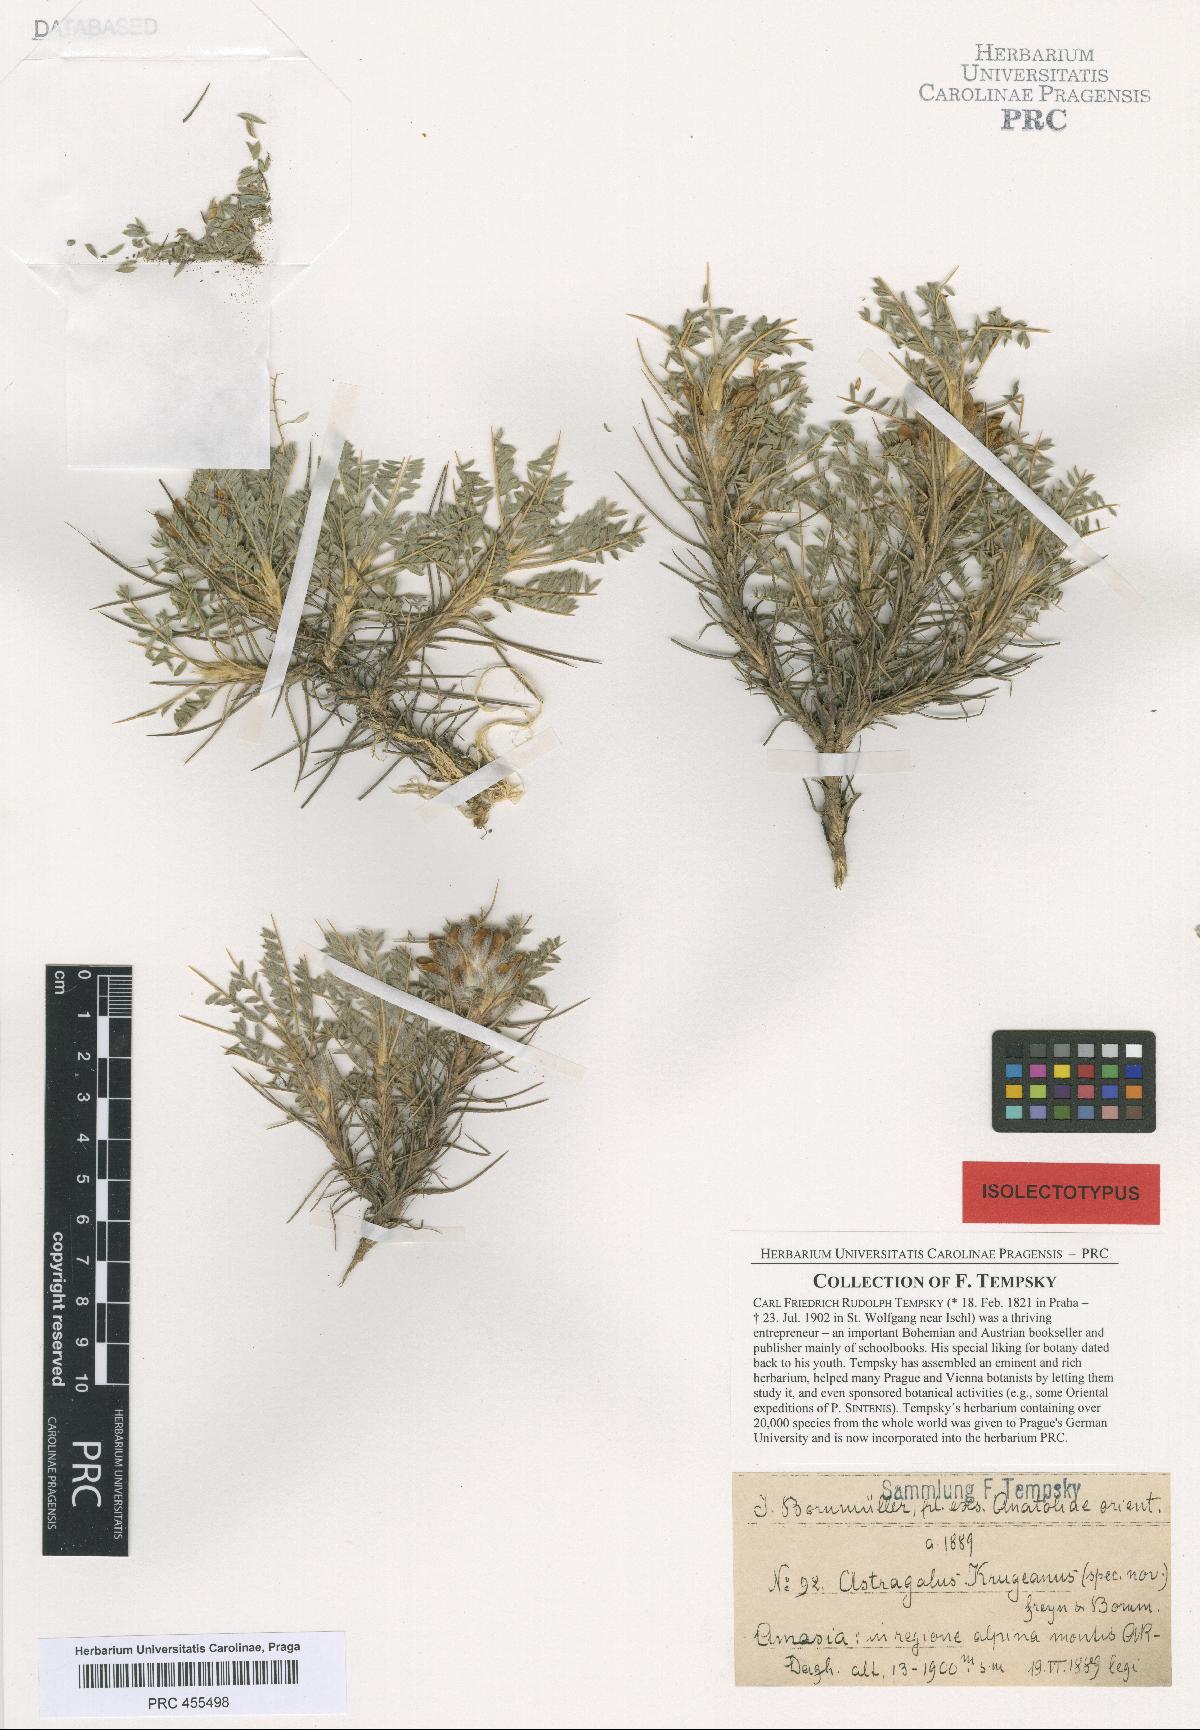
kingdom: Plantae
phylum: Tracheophyta
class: Magnoliopsida
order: Fabales
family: Fabaceae
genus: Astragalus
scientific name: Astragalus plumosus
